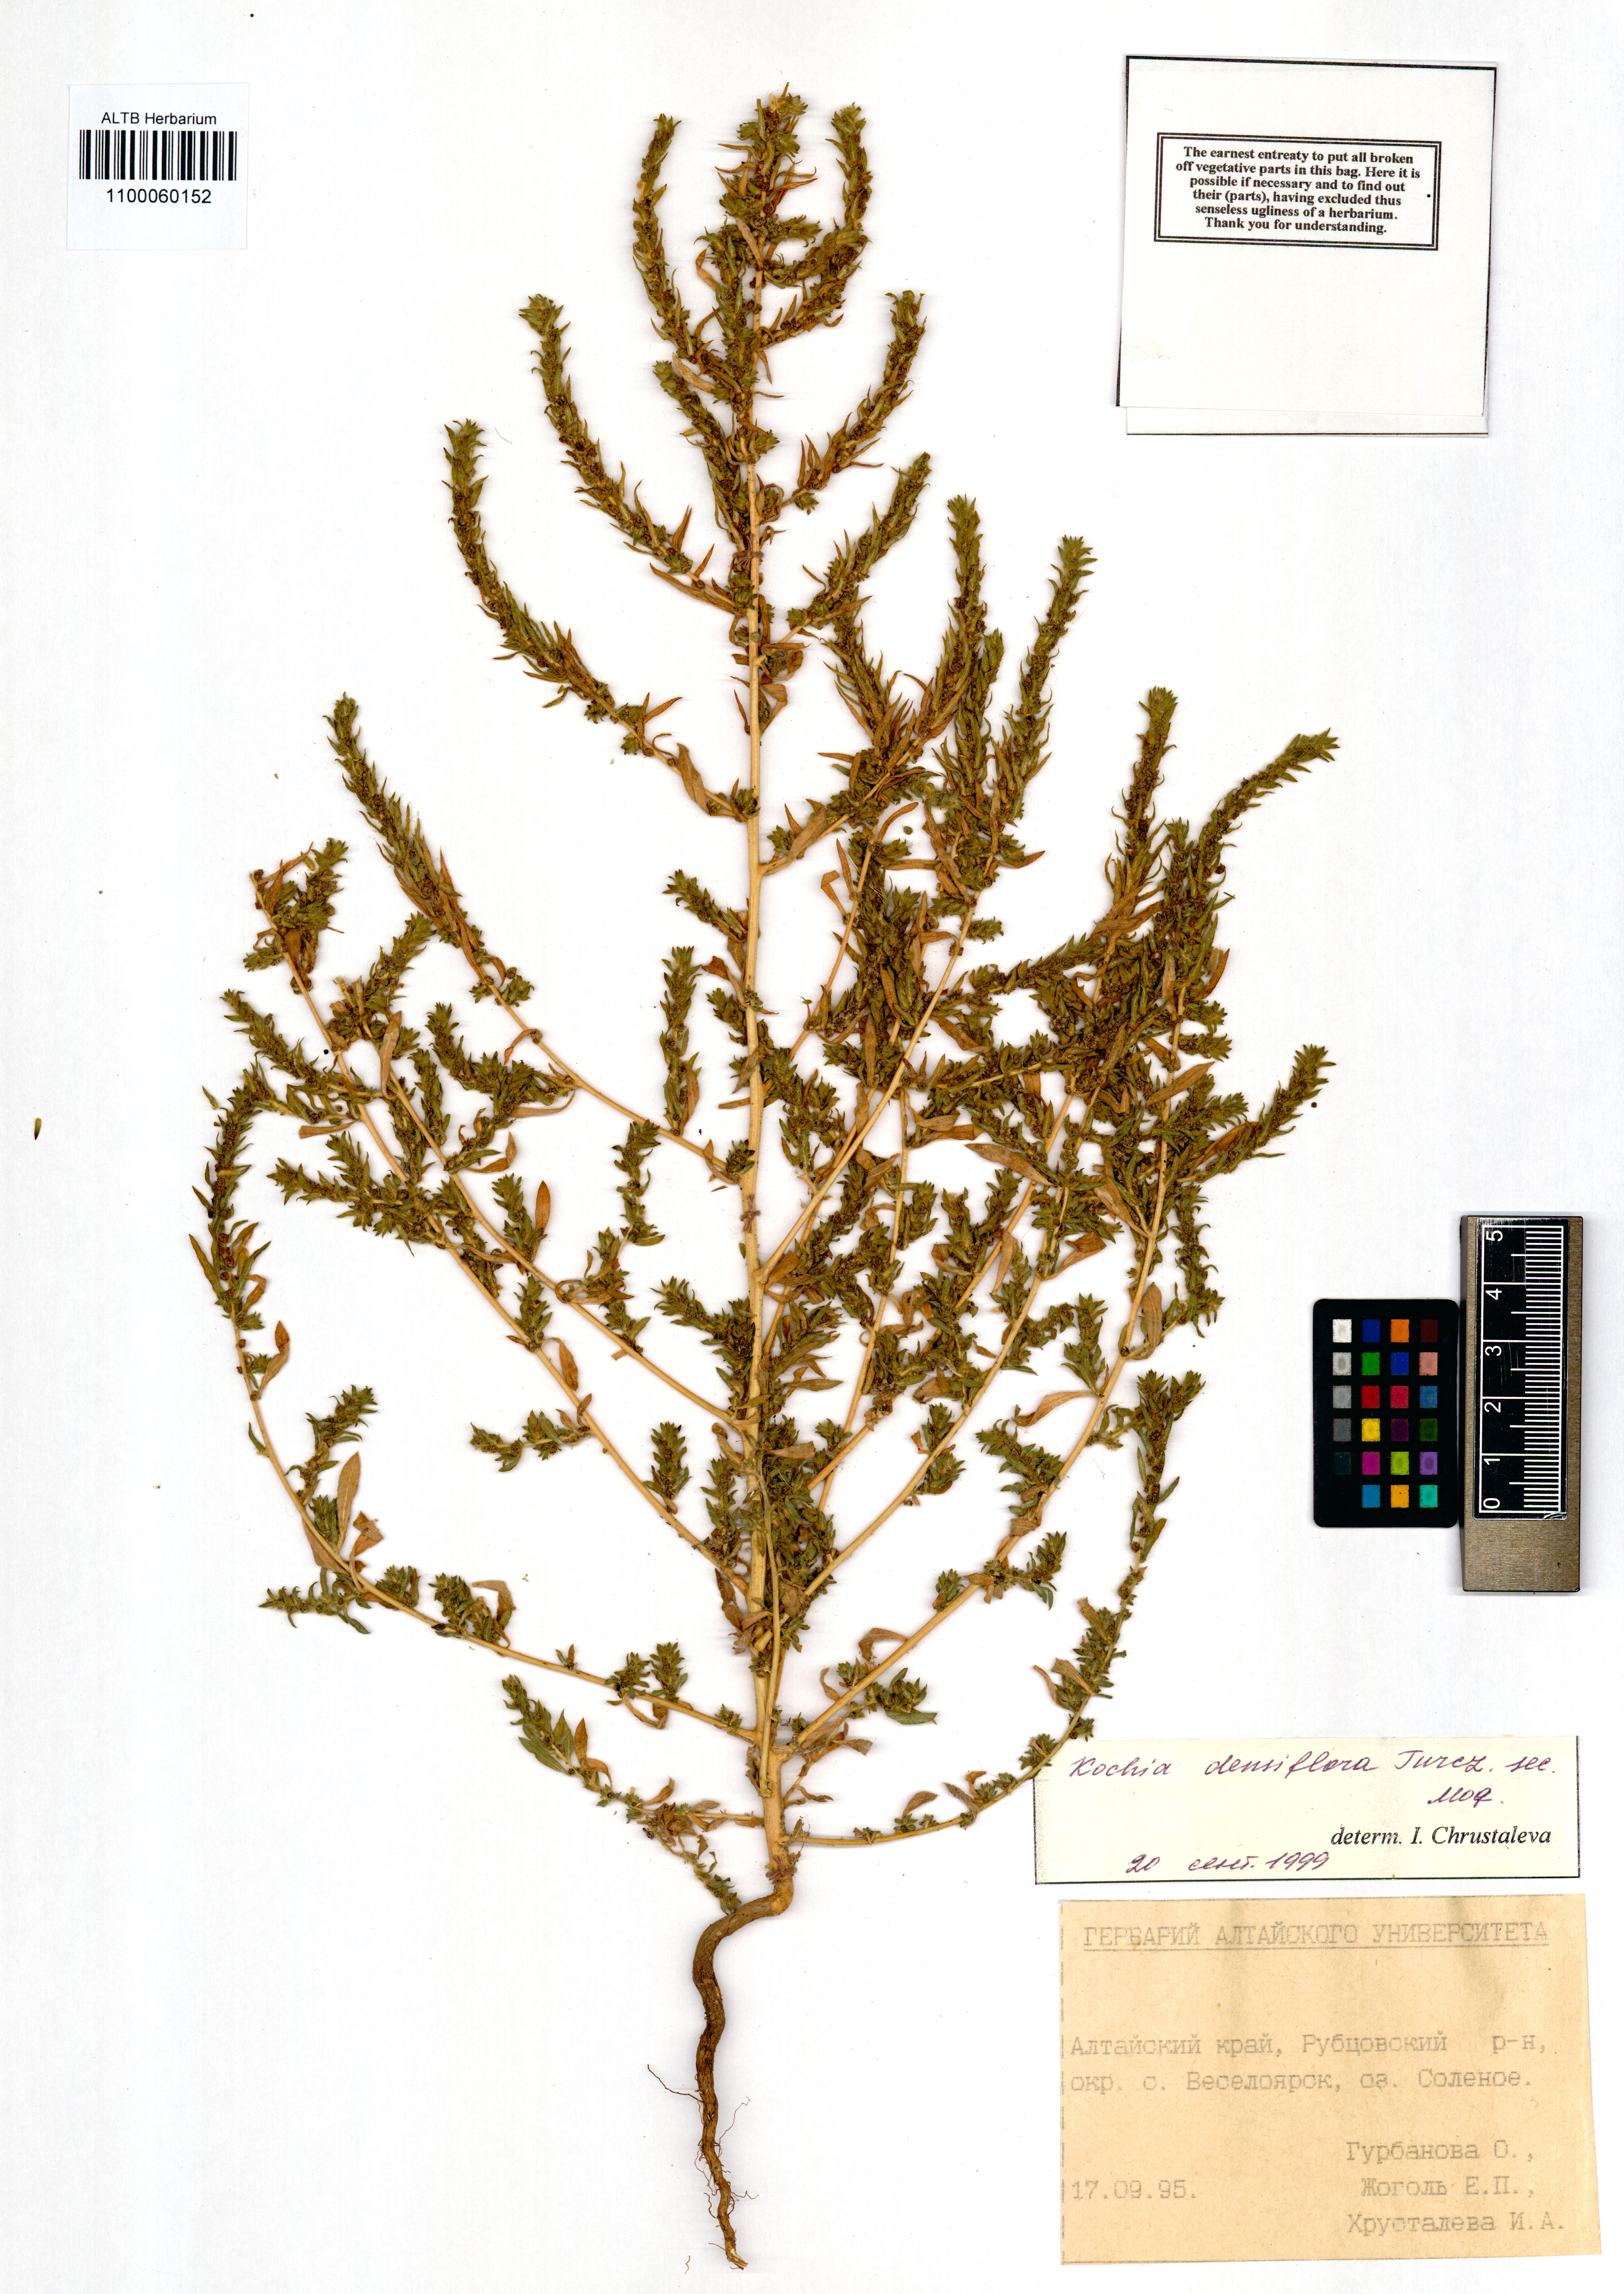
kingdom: Plantae
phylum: Tracheophyta
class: Magnoliopsida
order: Caryophyllales
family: Amaranthaceae
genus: Bassia
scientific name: Bassia scoparia
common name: Belvedere
